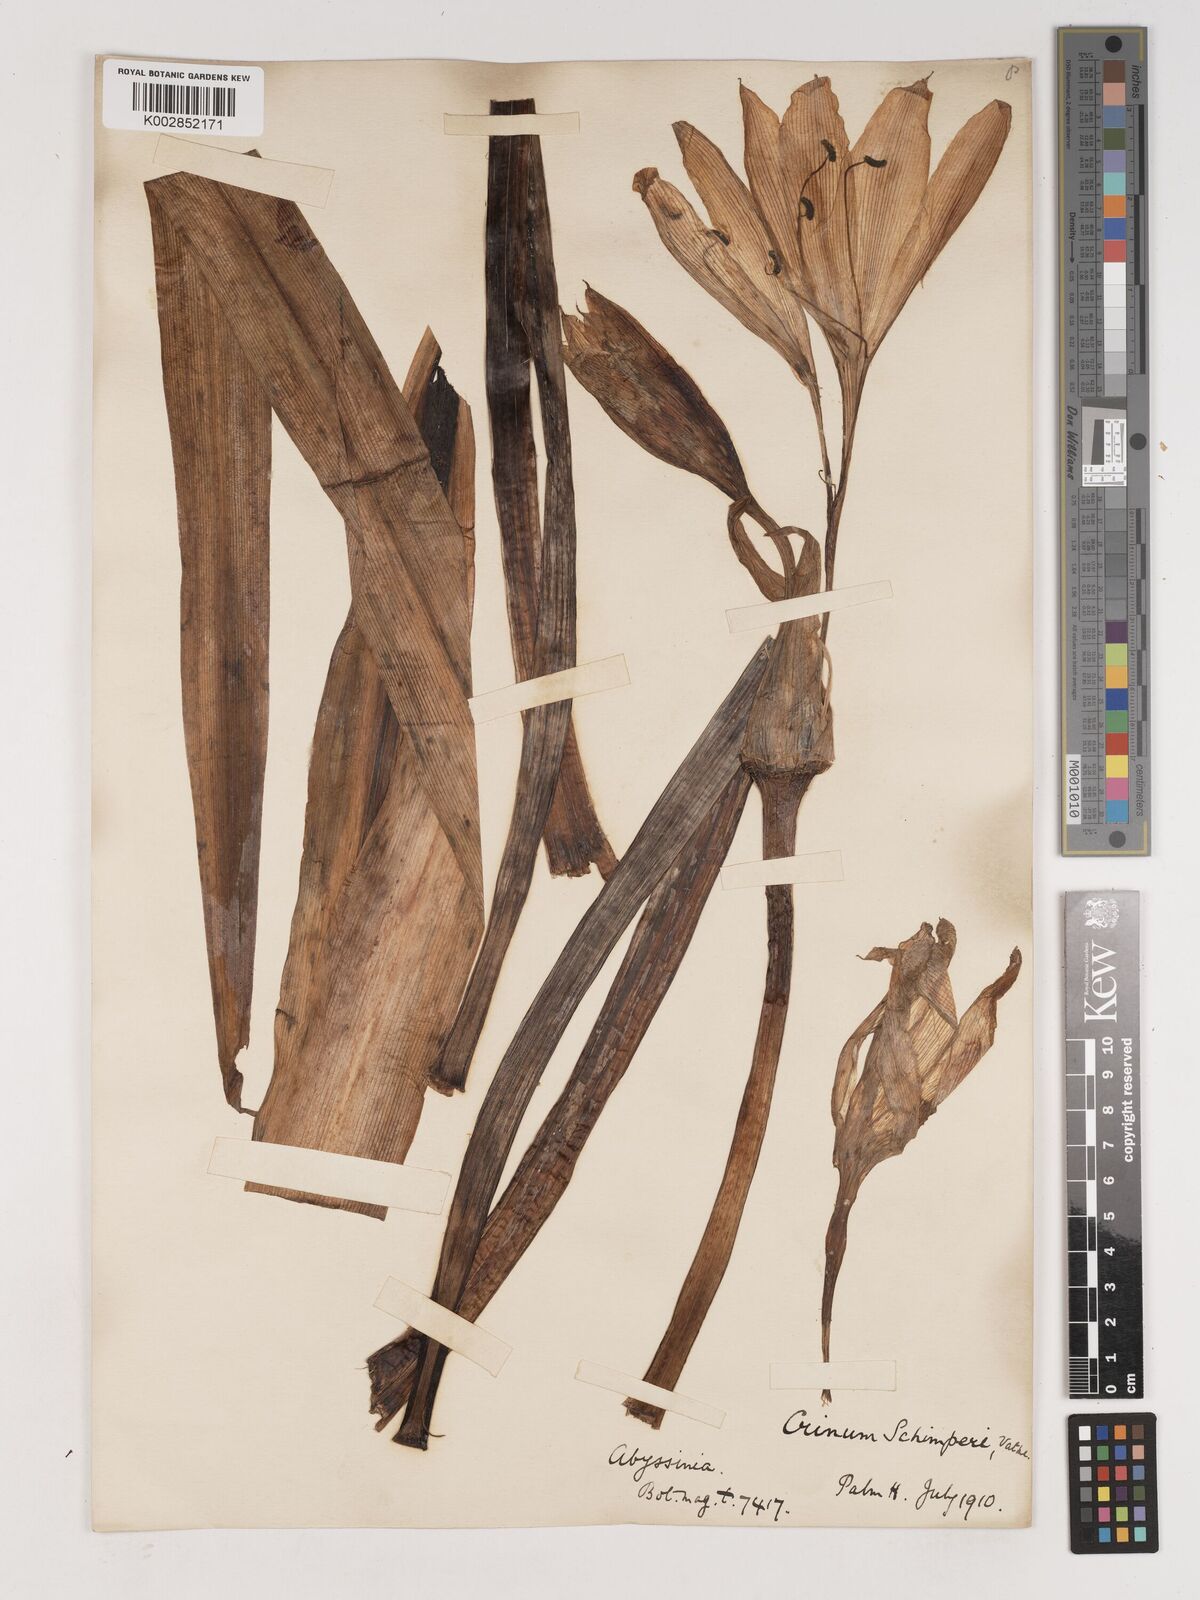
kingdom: Plantae
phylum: Tracheophyta
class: Liliopsida
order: Asparagales
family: Amaryllidaceae
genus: Crinum
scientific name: Crinum abyssinicum
